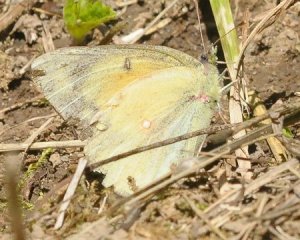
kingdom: Animalia
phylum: Arthropoda
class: Insecta
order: Lepidoptera
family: Pieridae
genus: Colias
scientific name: Colias eurytheme
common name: Orange Sulphur
